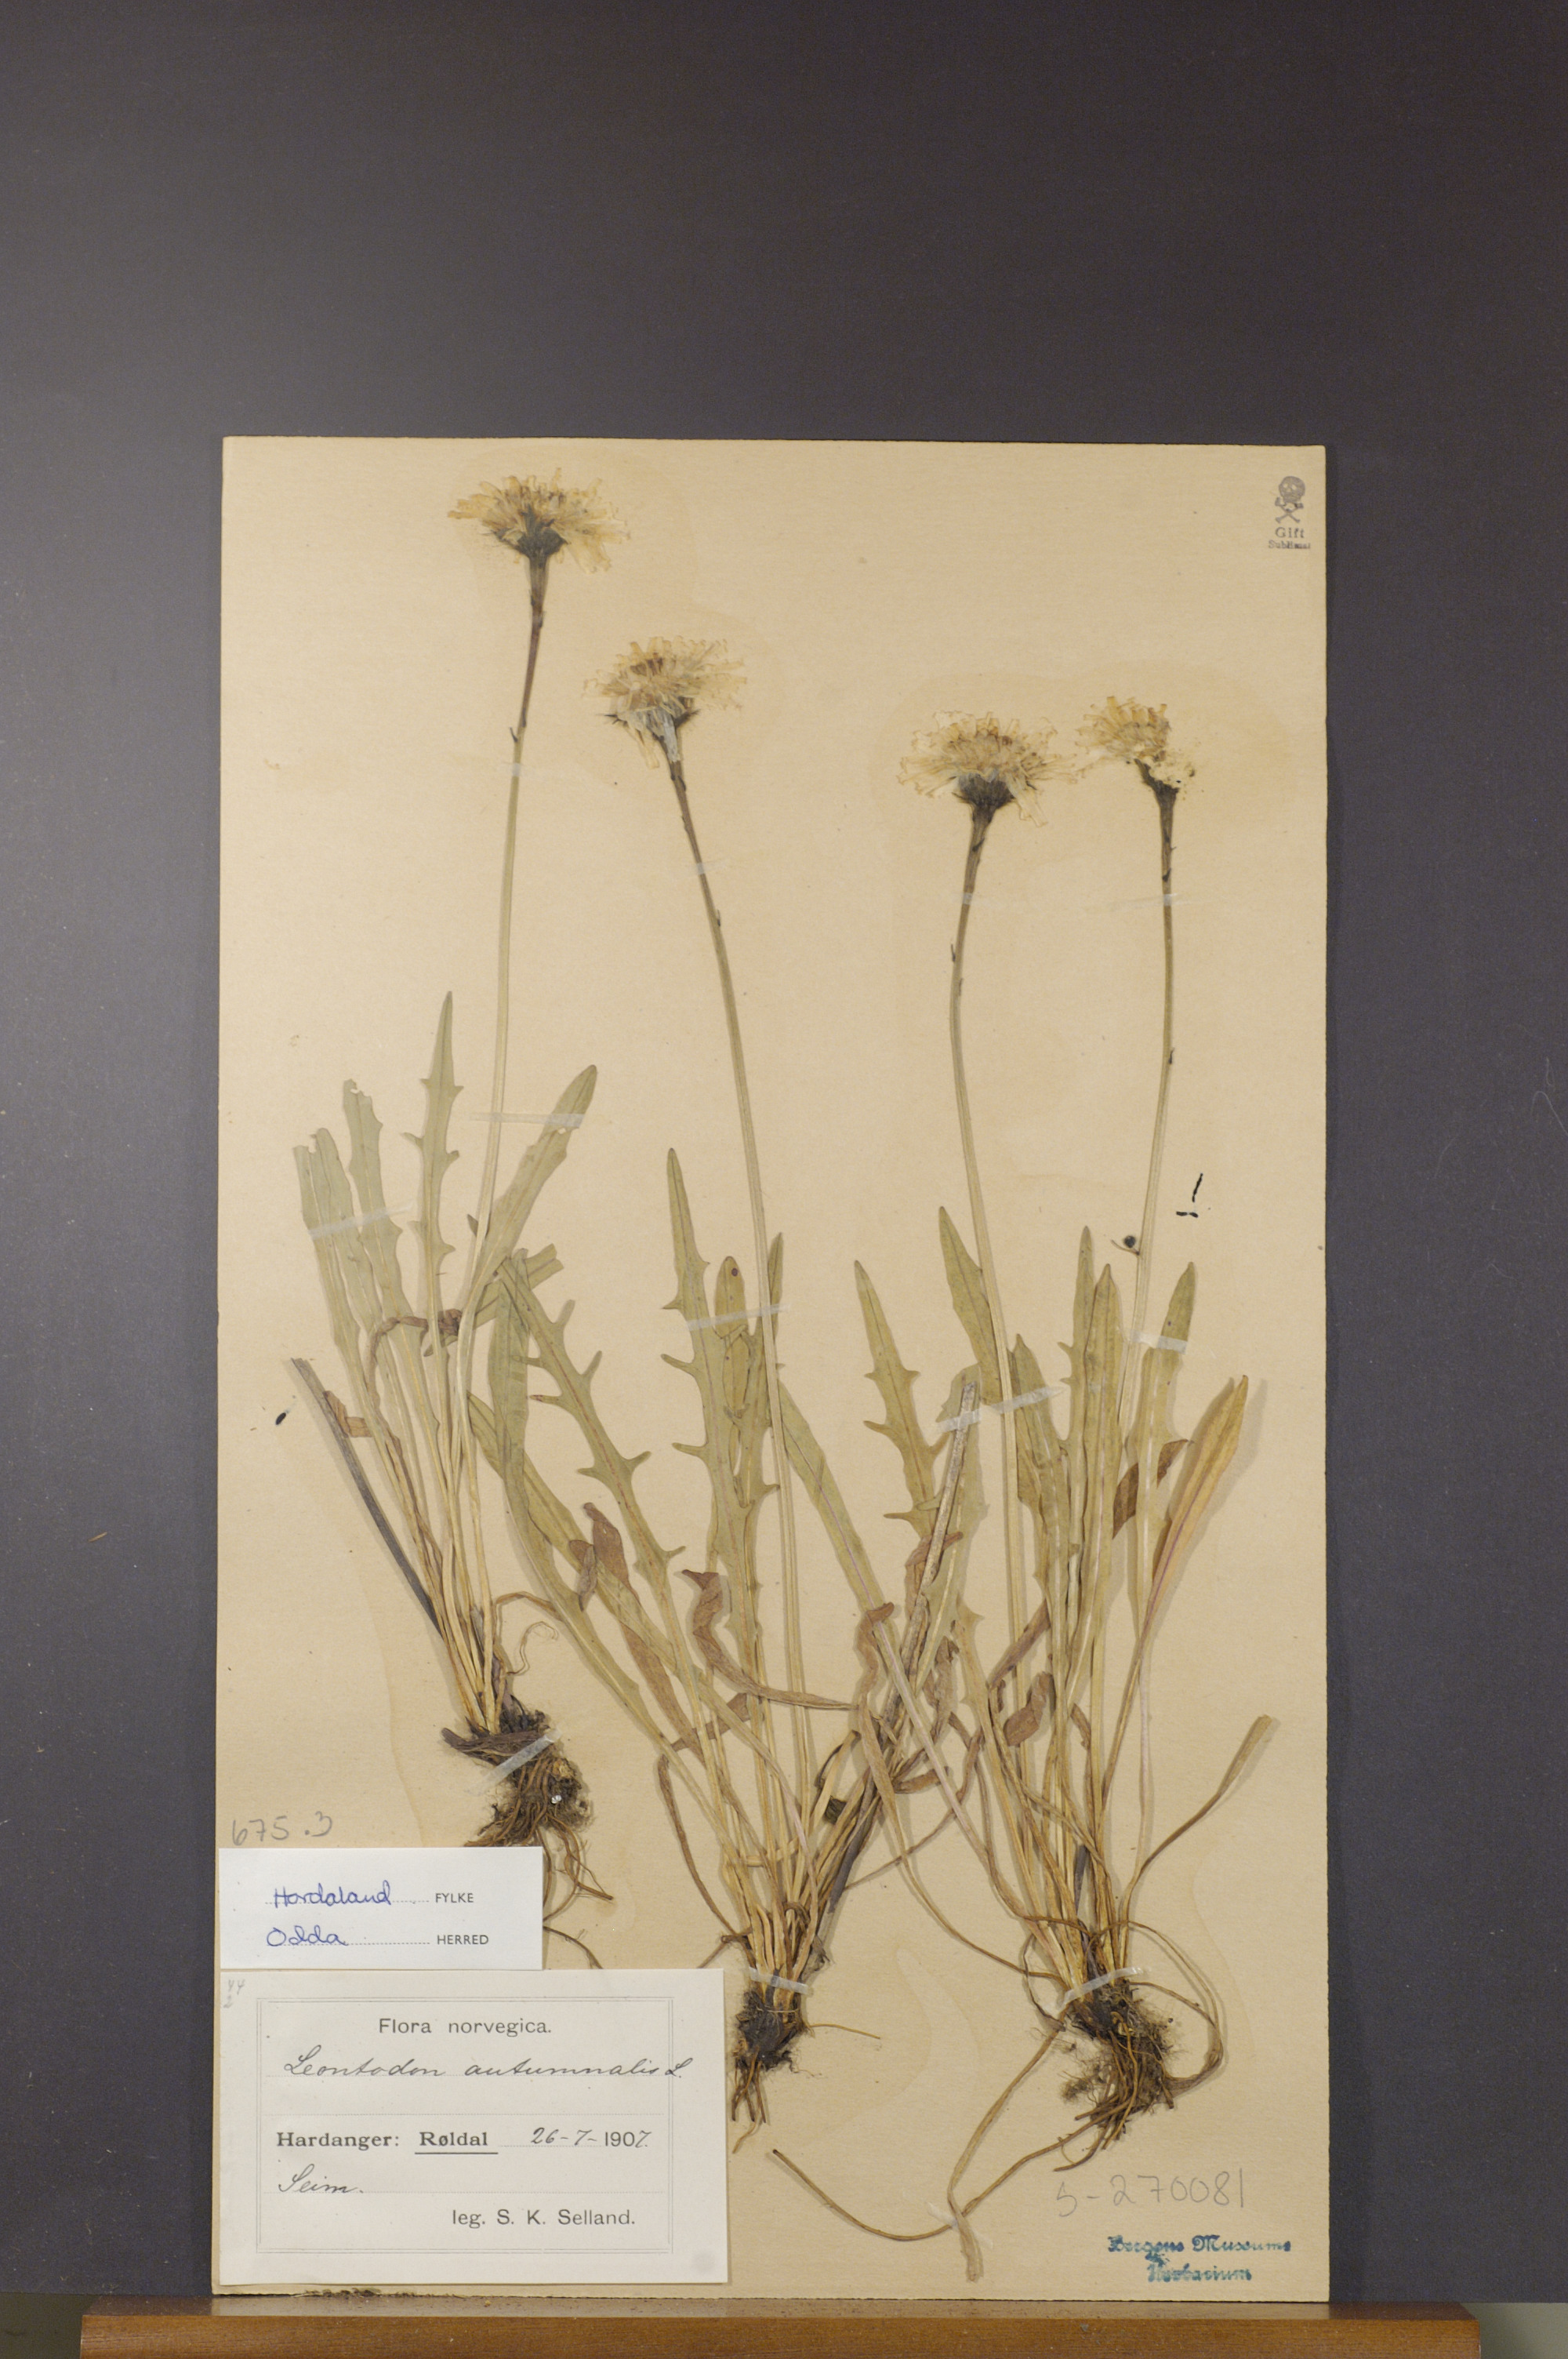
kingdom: Plantae
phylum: Tracheophyta
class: Magnoliopsida
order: Asterales
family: Asteraceae
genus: Scorzoneroides
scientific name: Scorzoneroides autumnalis
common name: Autumn hawkbit
